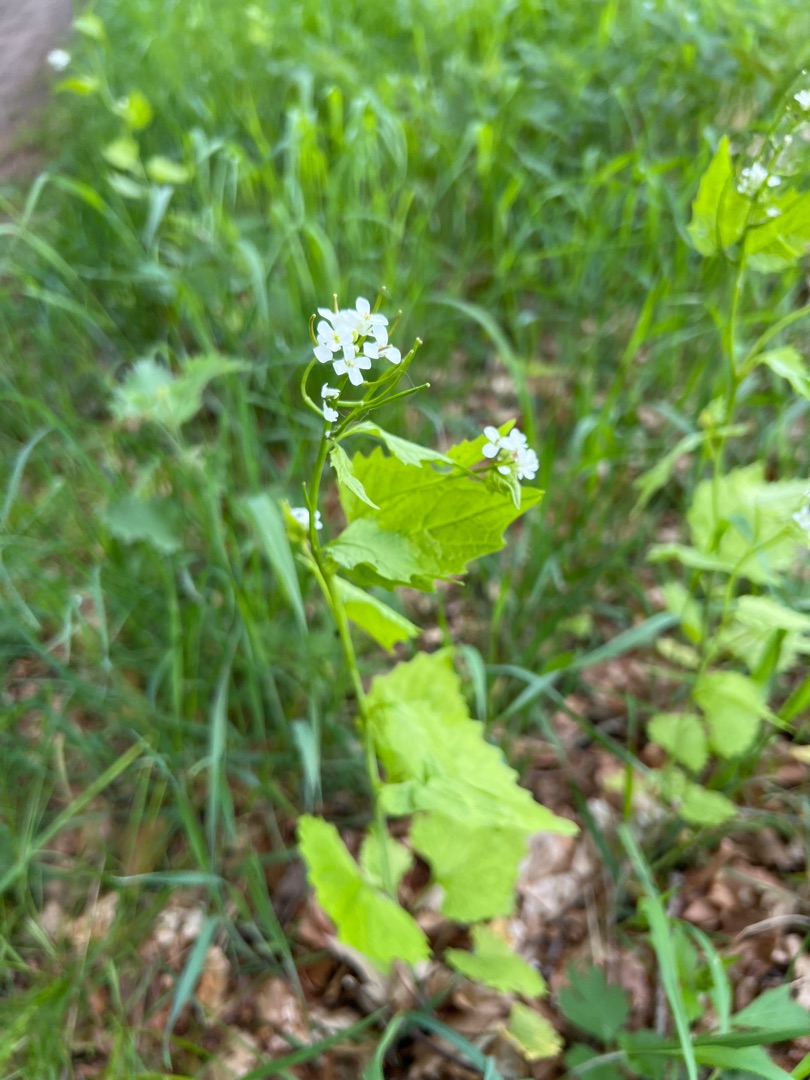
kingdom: Plantae
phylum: Tracheophyta
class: Magnoliopsida
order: Brassicales
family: Brassicaceae
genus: Alliaria
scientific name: Alliaria petiolata
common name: Løgkarse
